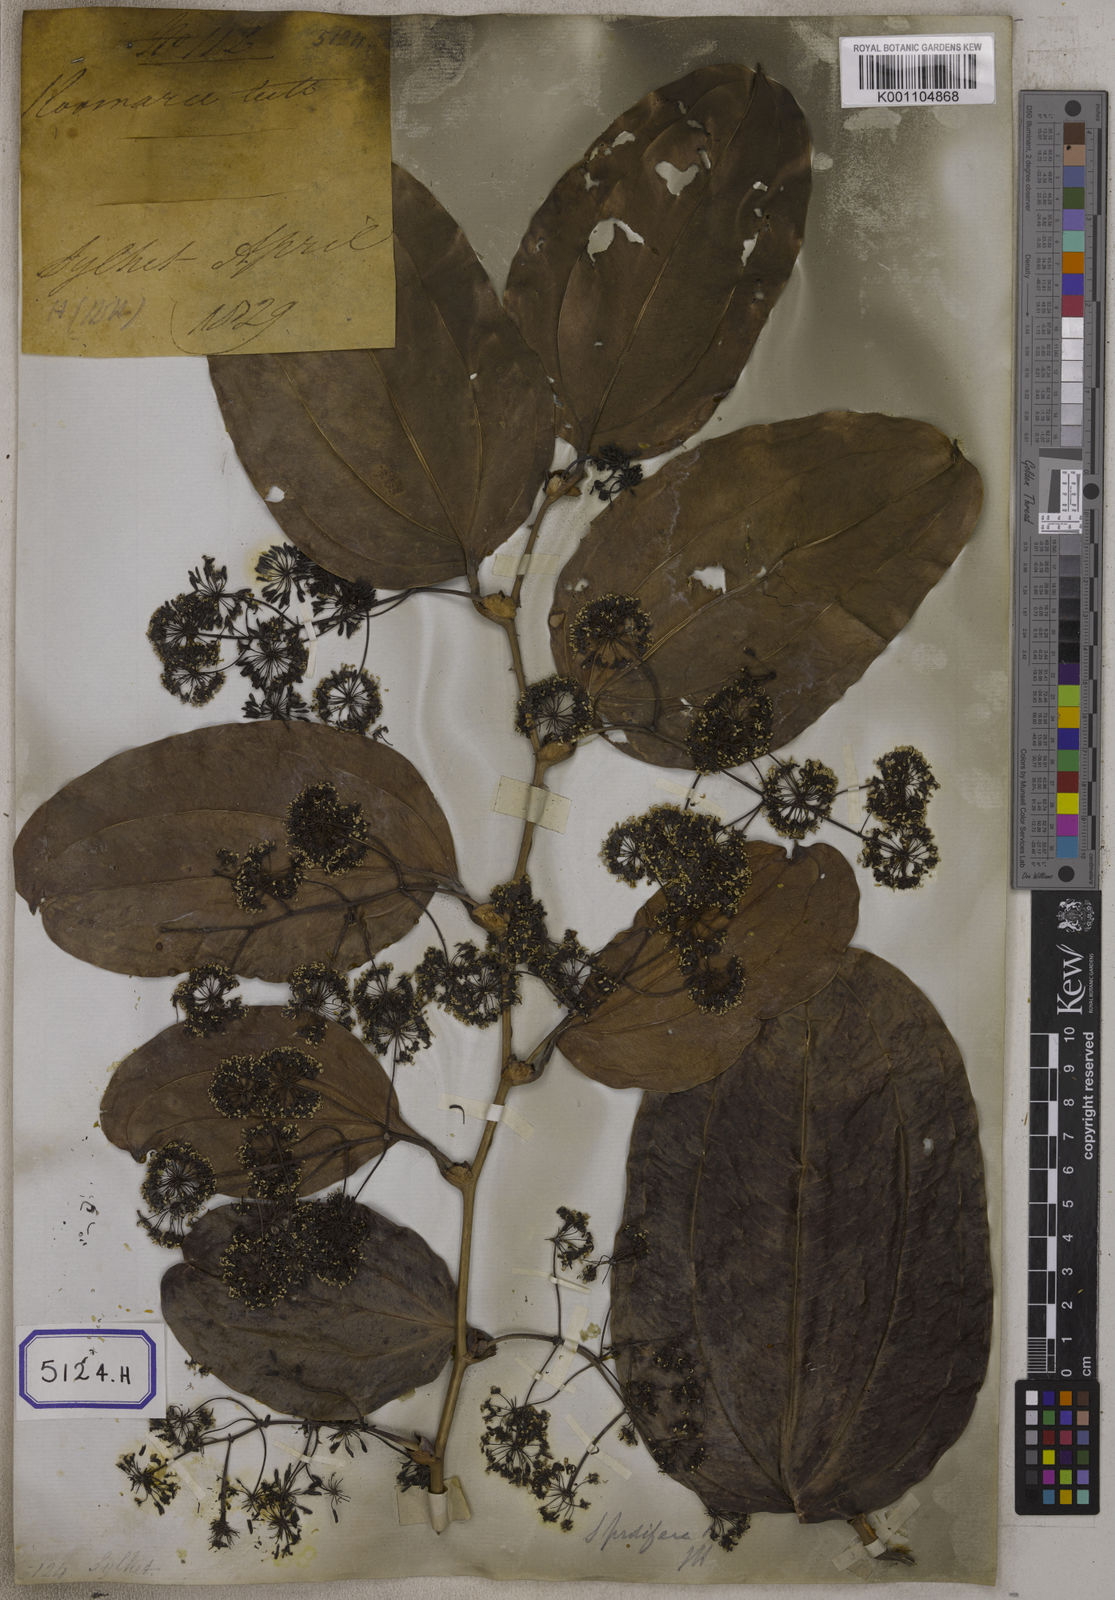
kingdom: Plantae
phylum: Tracheophyta
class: Liliopsida
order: Liliales
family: Smilacaceae
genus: Smilax
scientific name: Smilax prolifera
